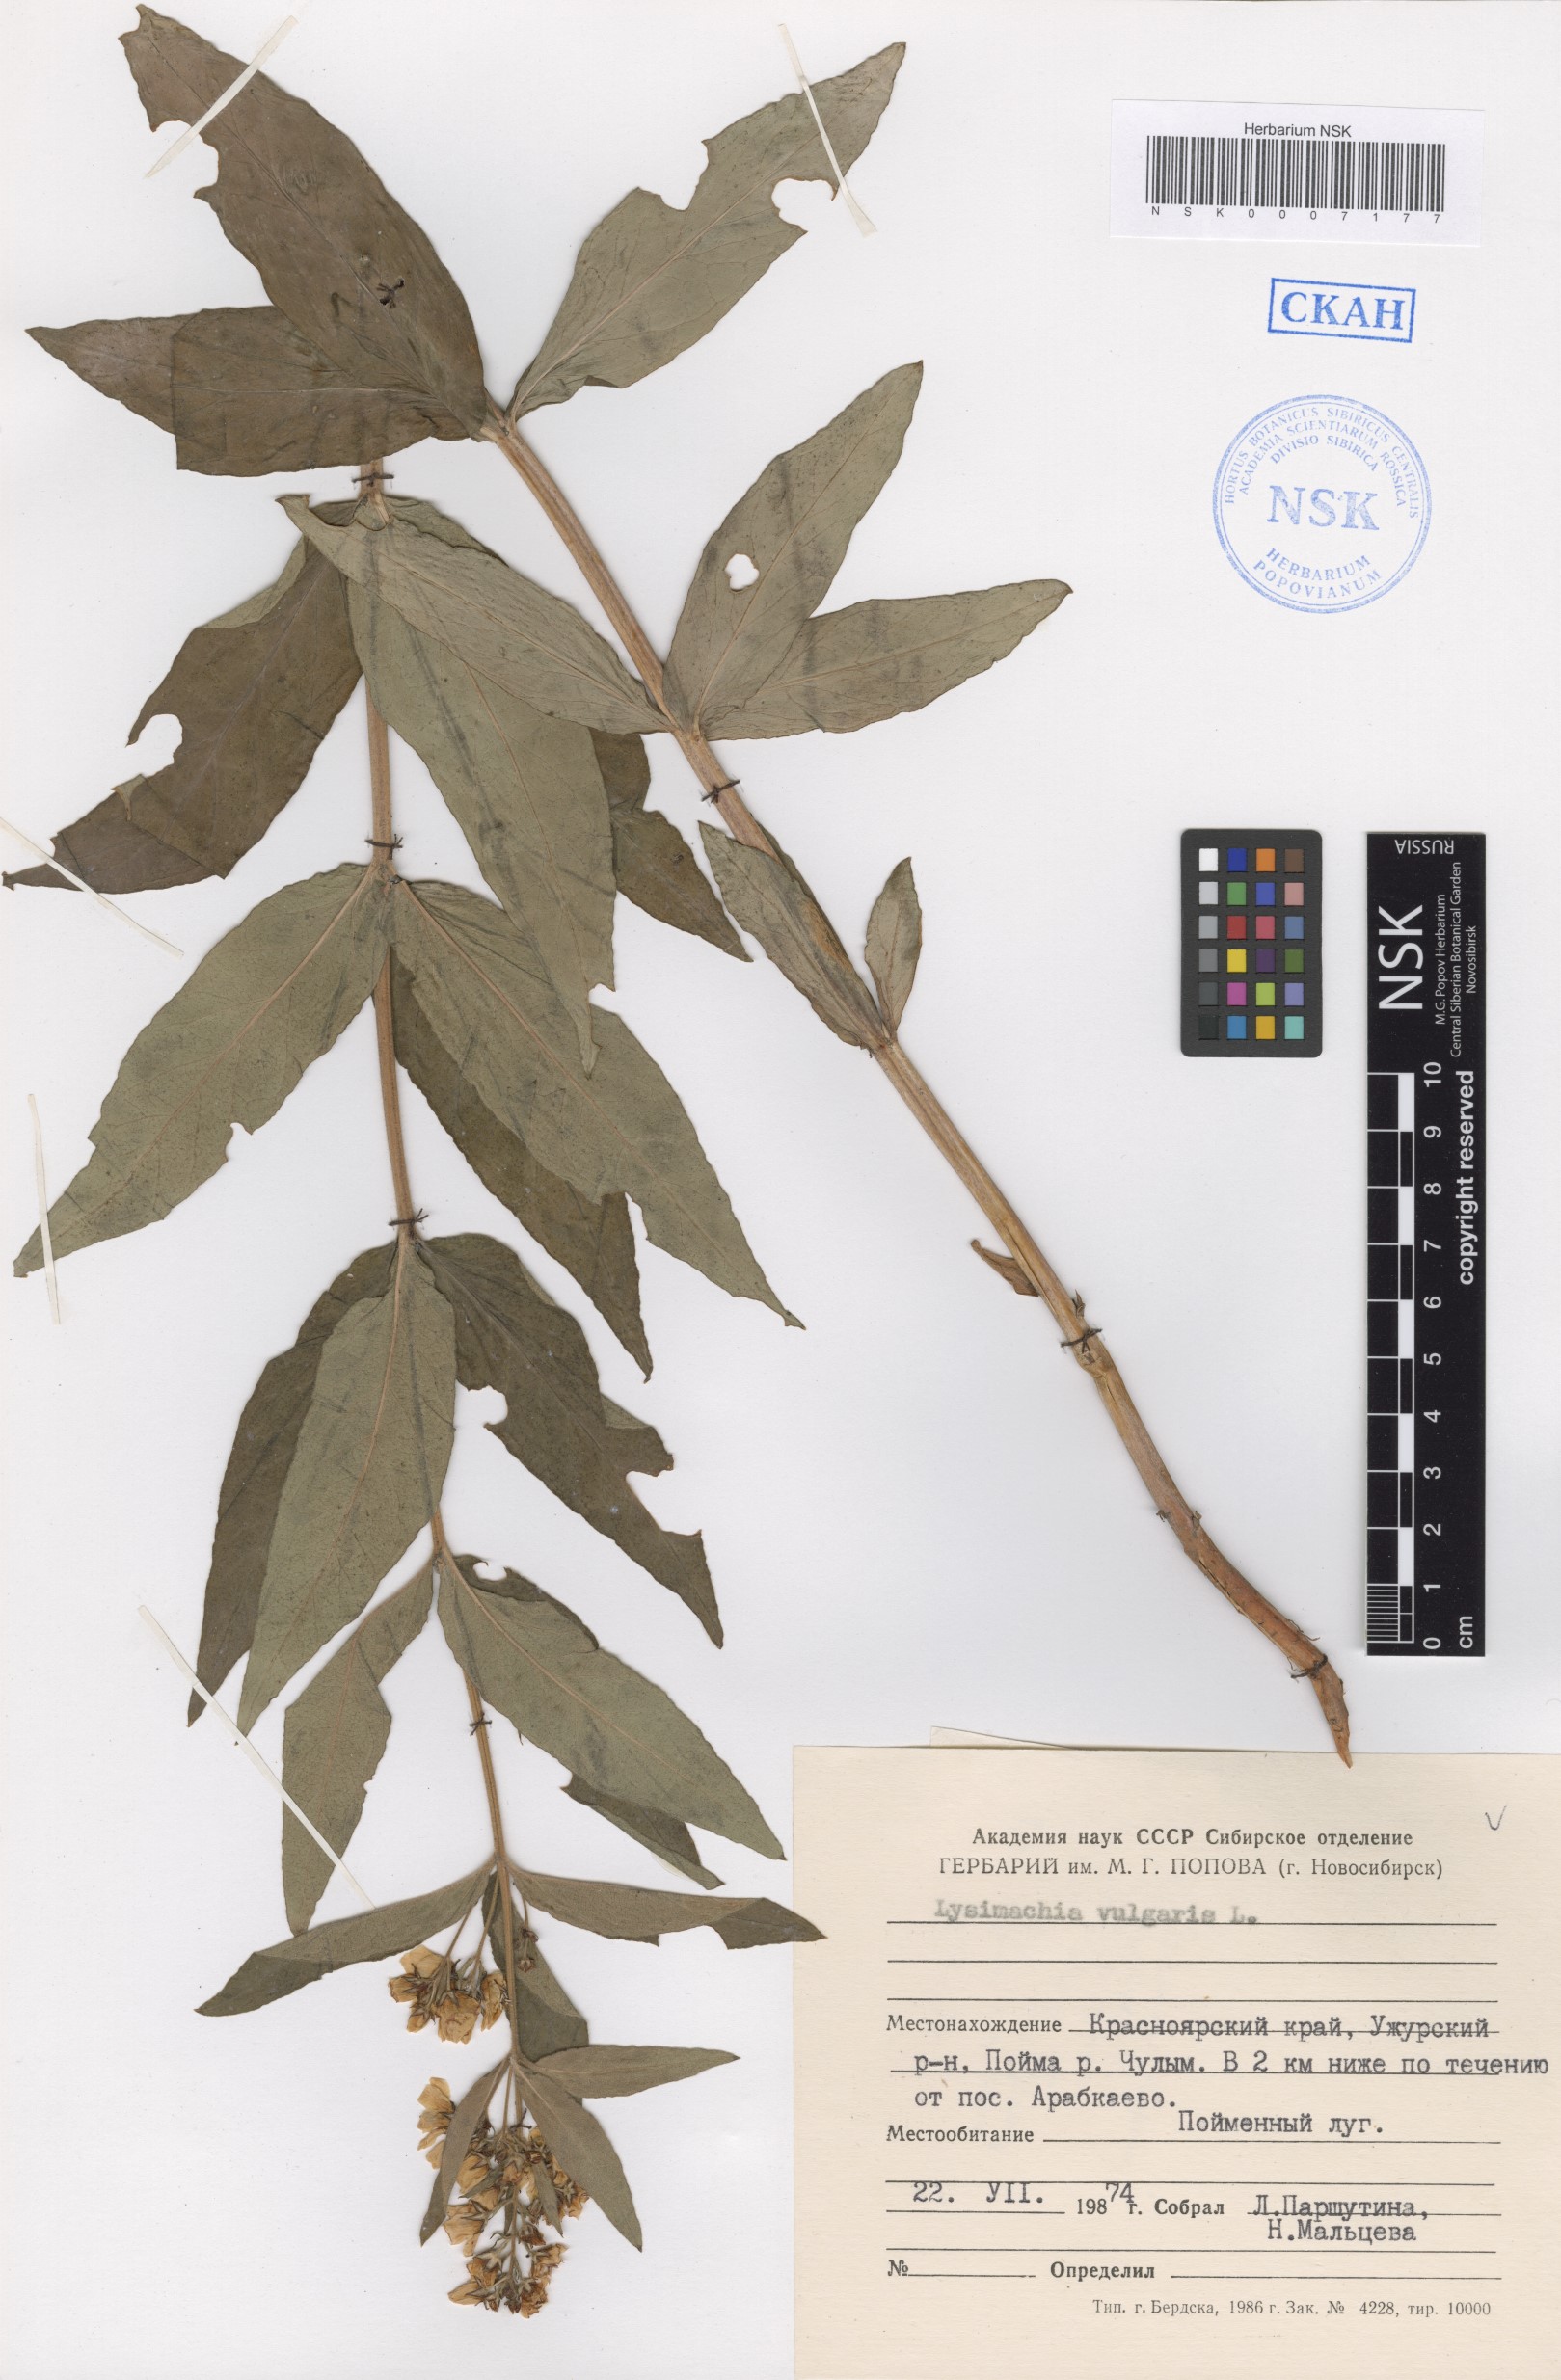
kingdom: Plantae
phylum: Tracheophyta
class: Magnoliopsida
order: Ericales
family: Primulaceae
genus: Lysimachia
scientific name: Lysimachia vulgaris
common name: Yellow loosestrife
